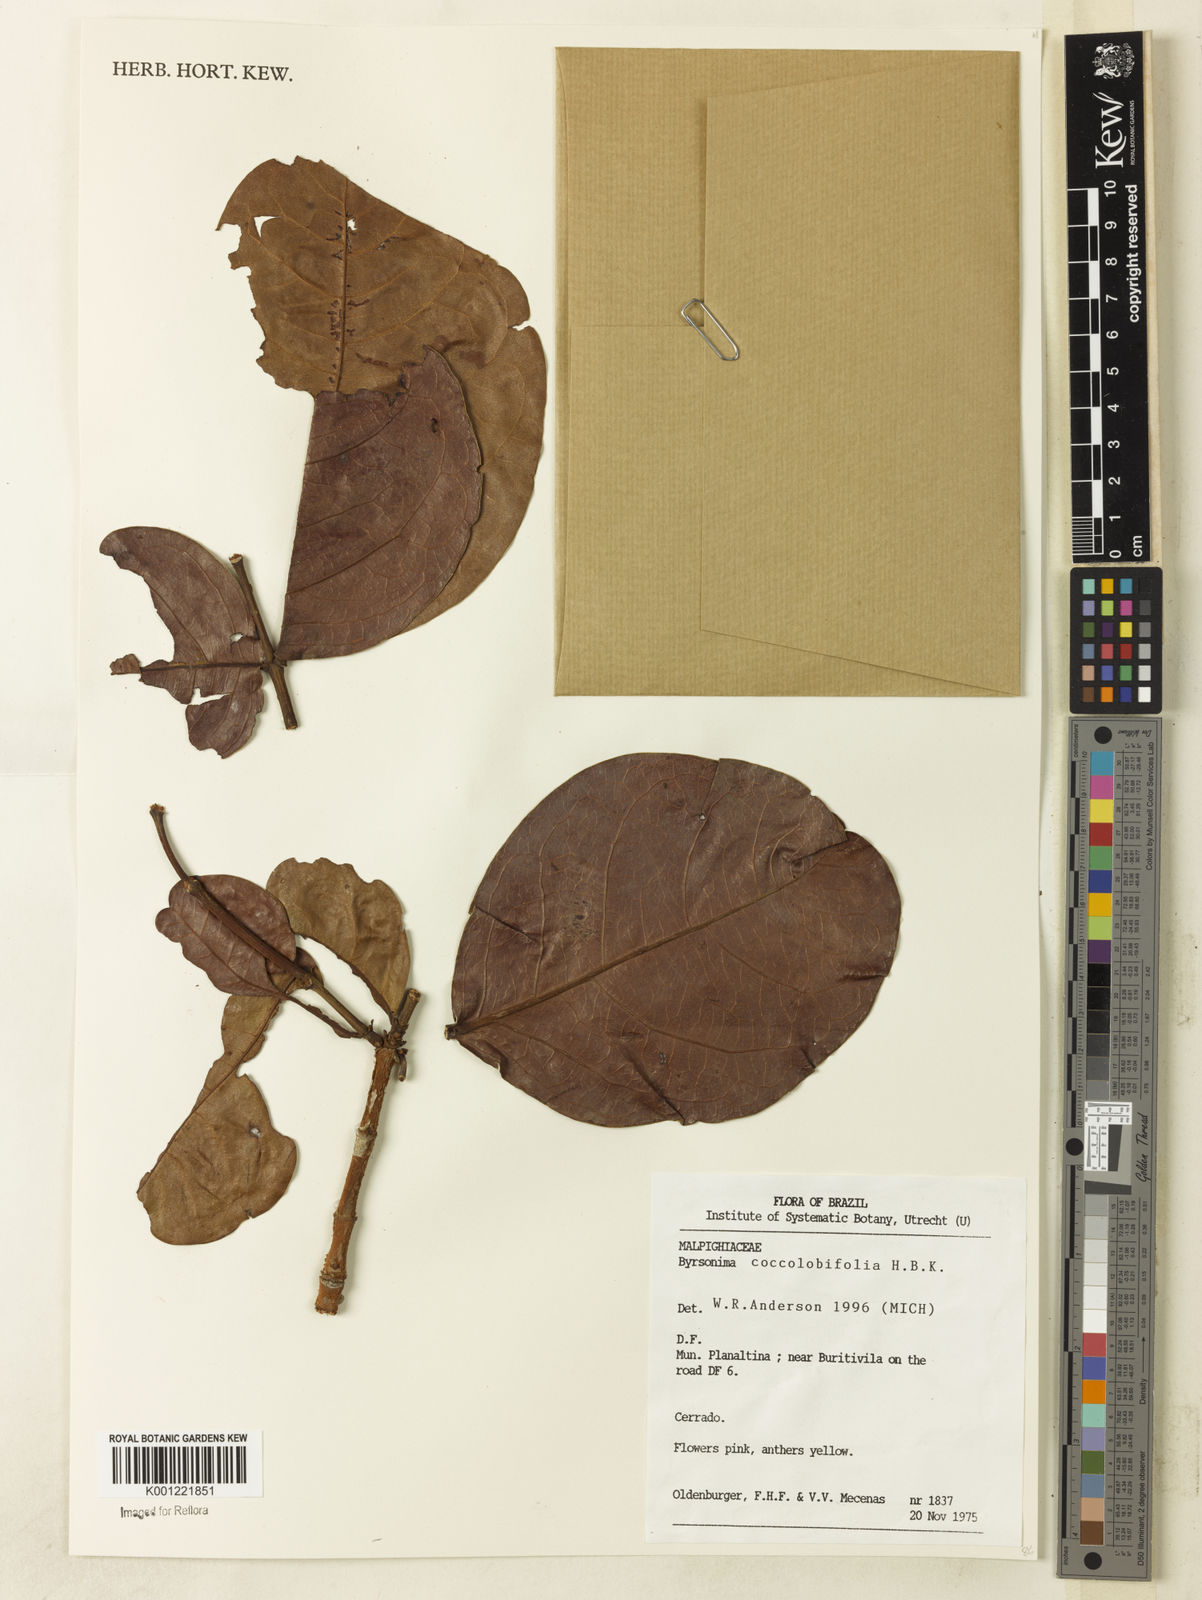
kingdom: Plantae
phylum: Tracheophyta
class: Magnoliopsida
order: Malpighiales
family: Malpighiaceae
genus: Byrsonima
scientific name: Byrsonima coccolobifolia
